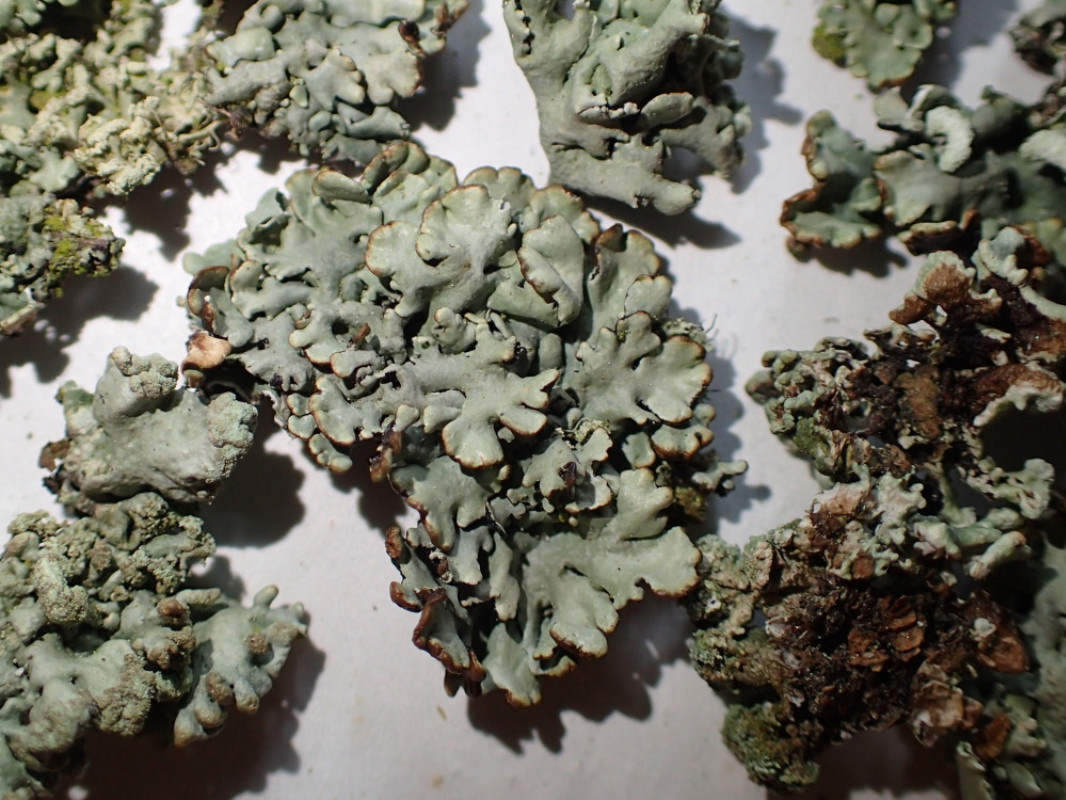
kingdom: Fungi
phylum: Ascomycota
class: Lecanoromycetes
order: Lecanorales
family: Parmeliaceae
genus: Hypogymnia
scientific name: Hypogymnia physodes
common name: almindelig kvistlav
